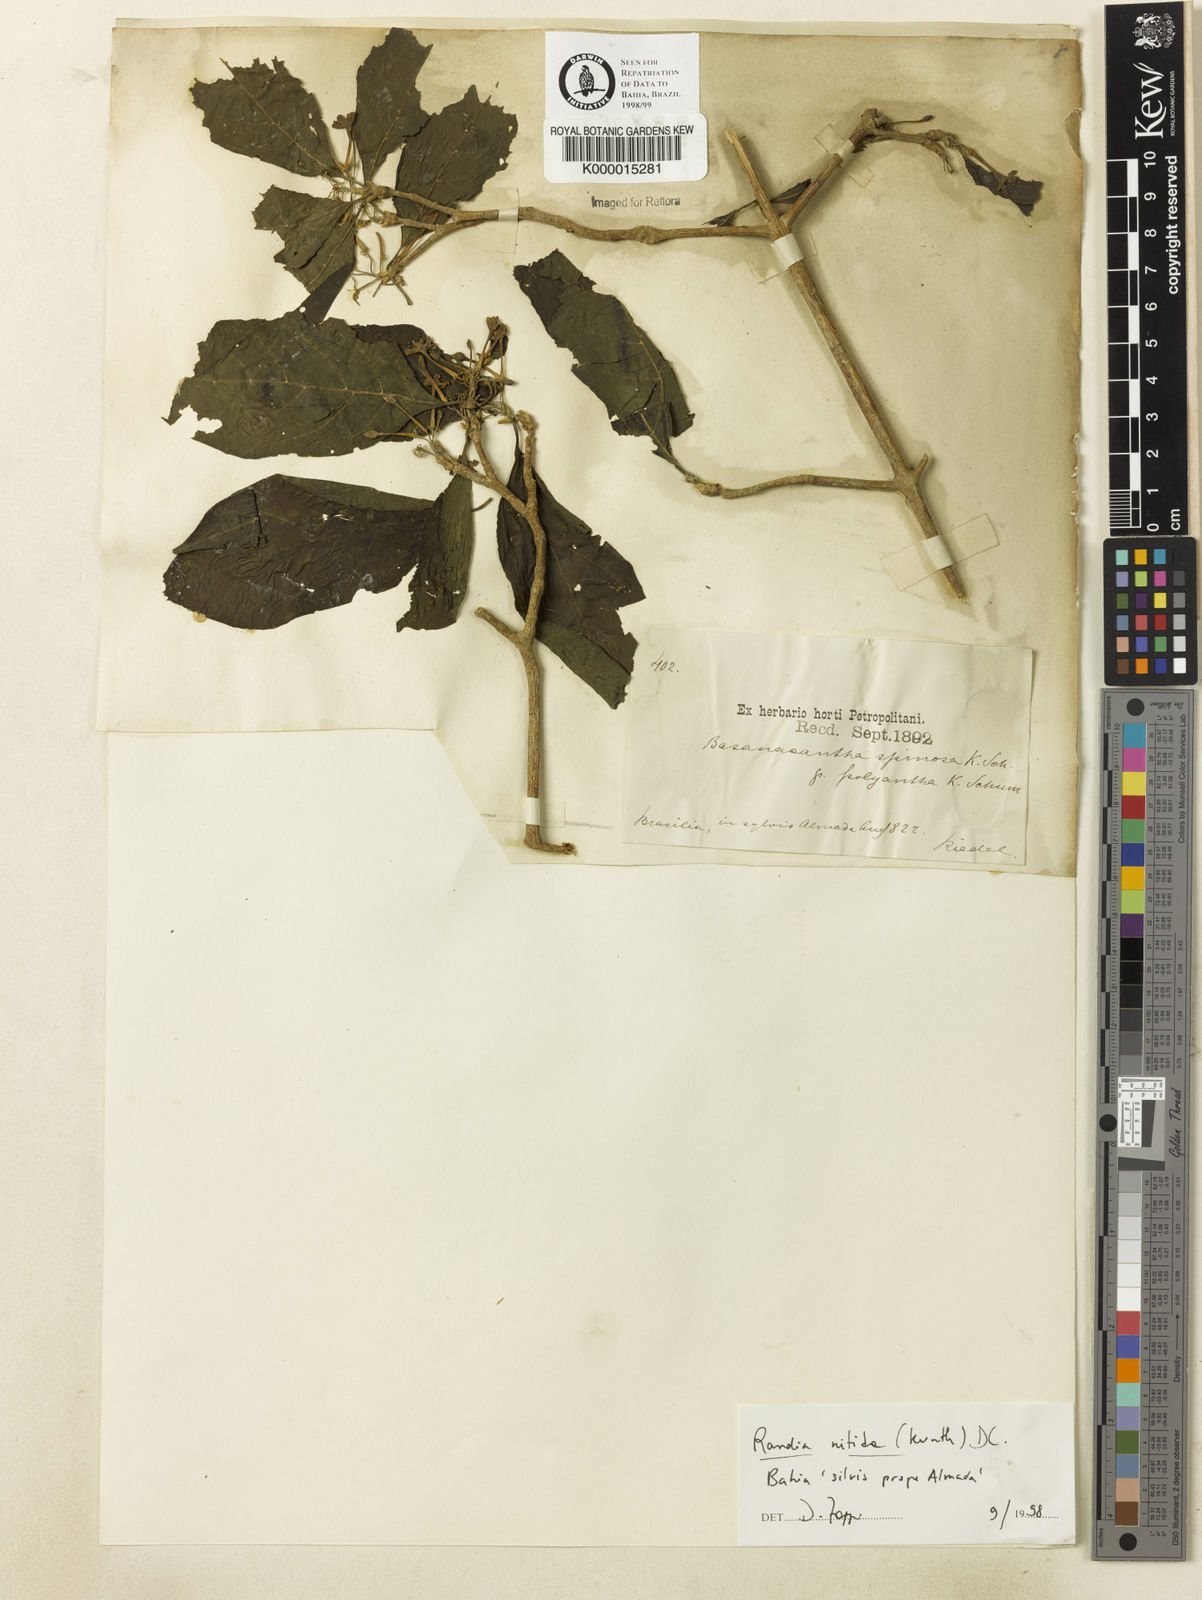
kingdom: Plantae
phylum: Tracheophyta
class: Magnoliopsida
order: Gentianales
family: Rubiaceae
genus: Randia
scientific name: Randia nitida
